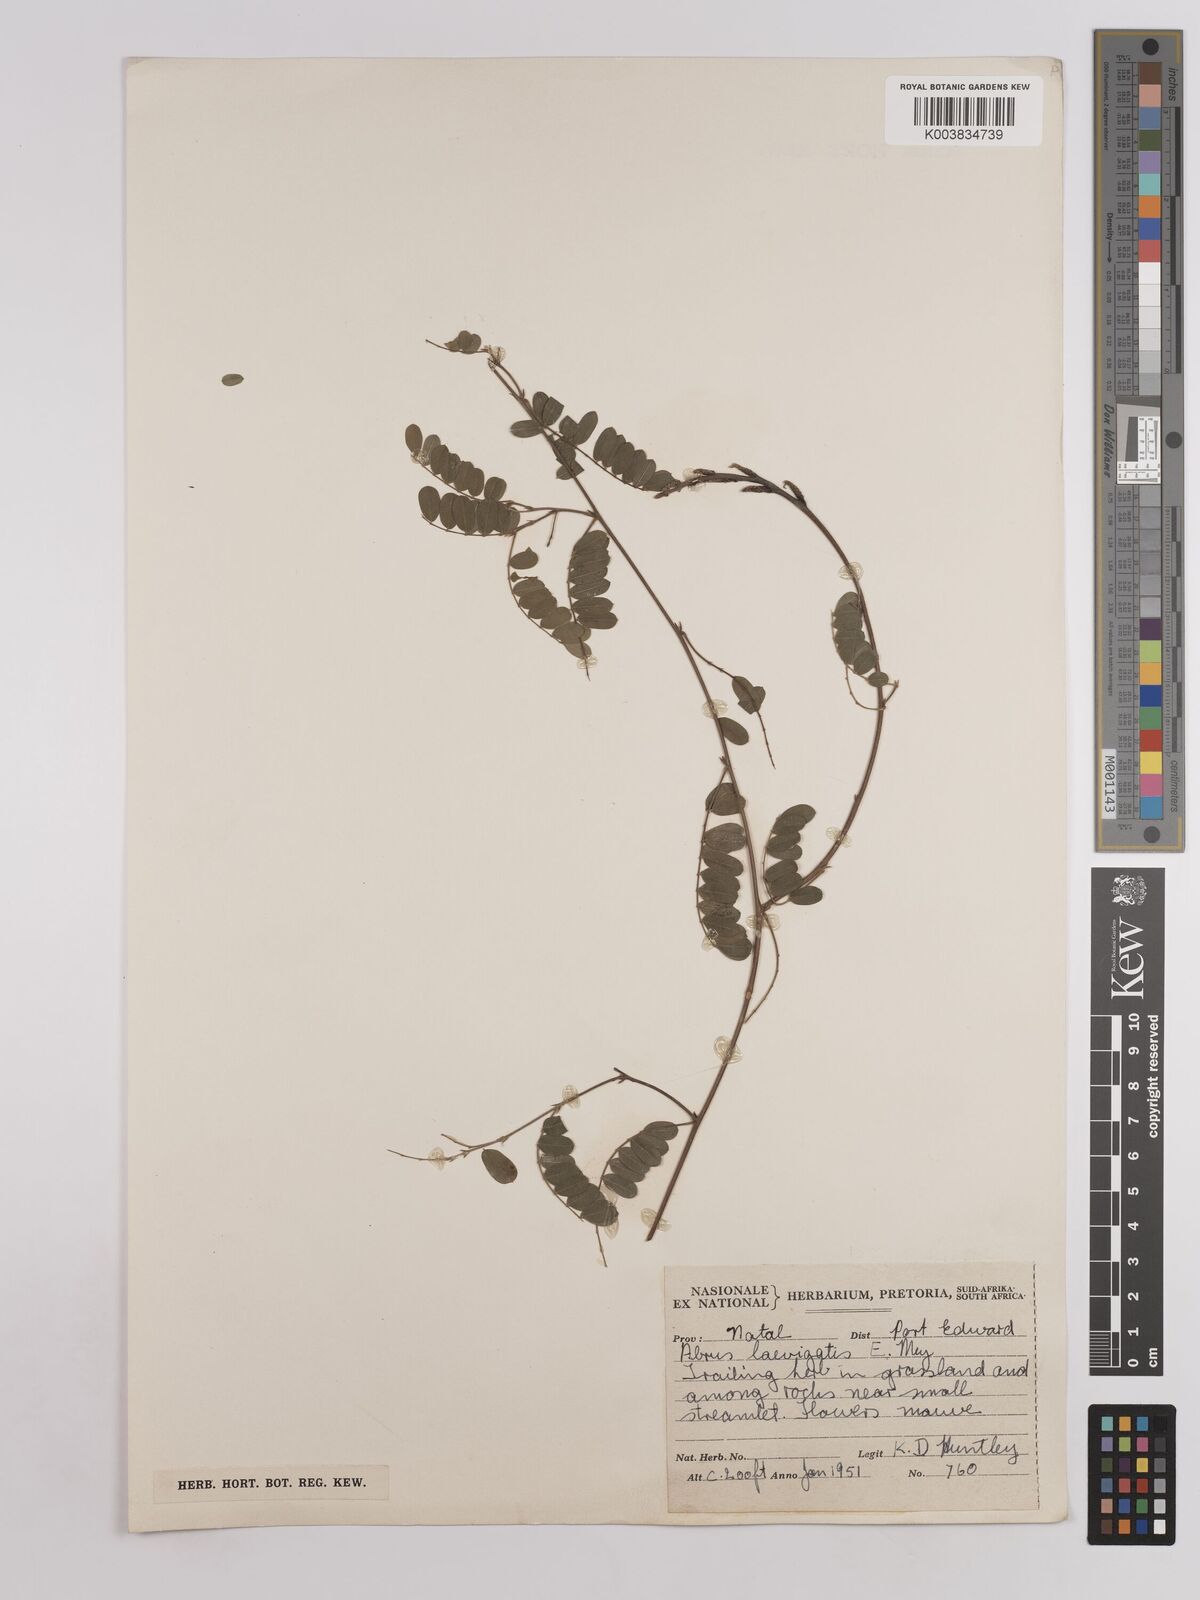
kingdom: Plantae
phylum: Tracheophyta
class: Magnoliopsida
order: Fabales
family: Fabaceae
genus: Abrus
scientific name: Abrus laevigatus
